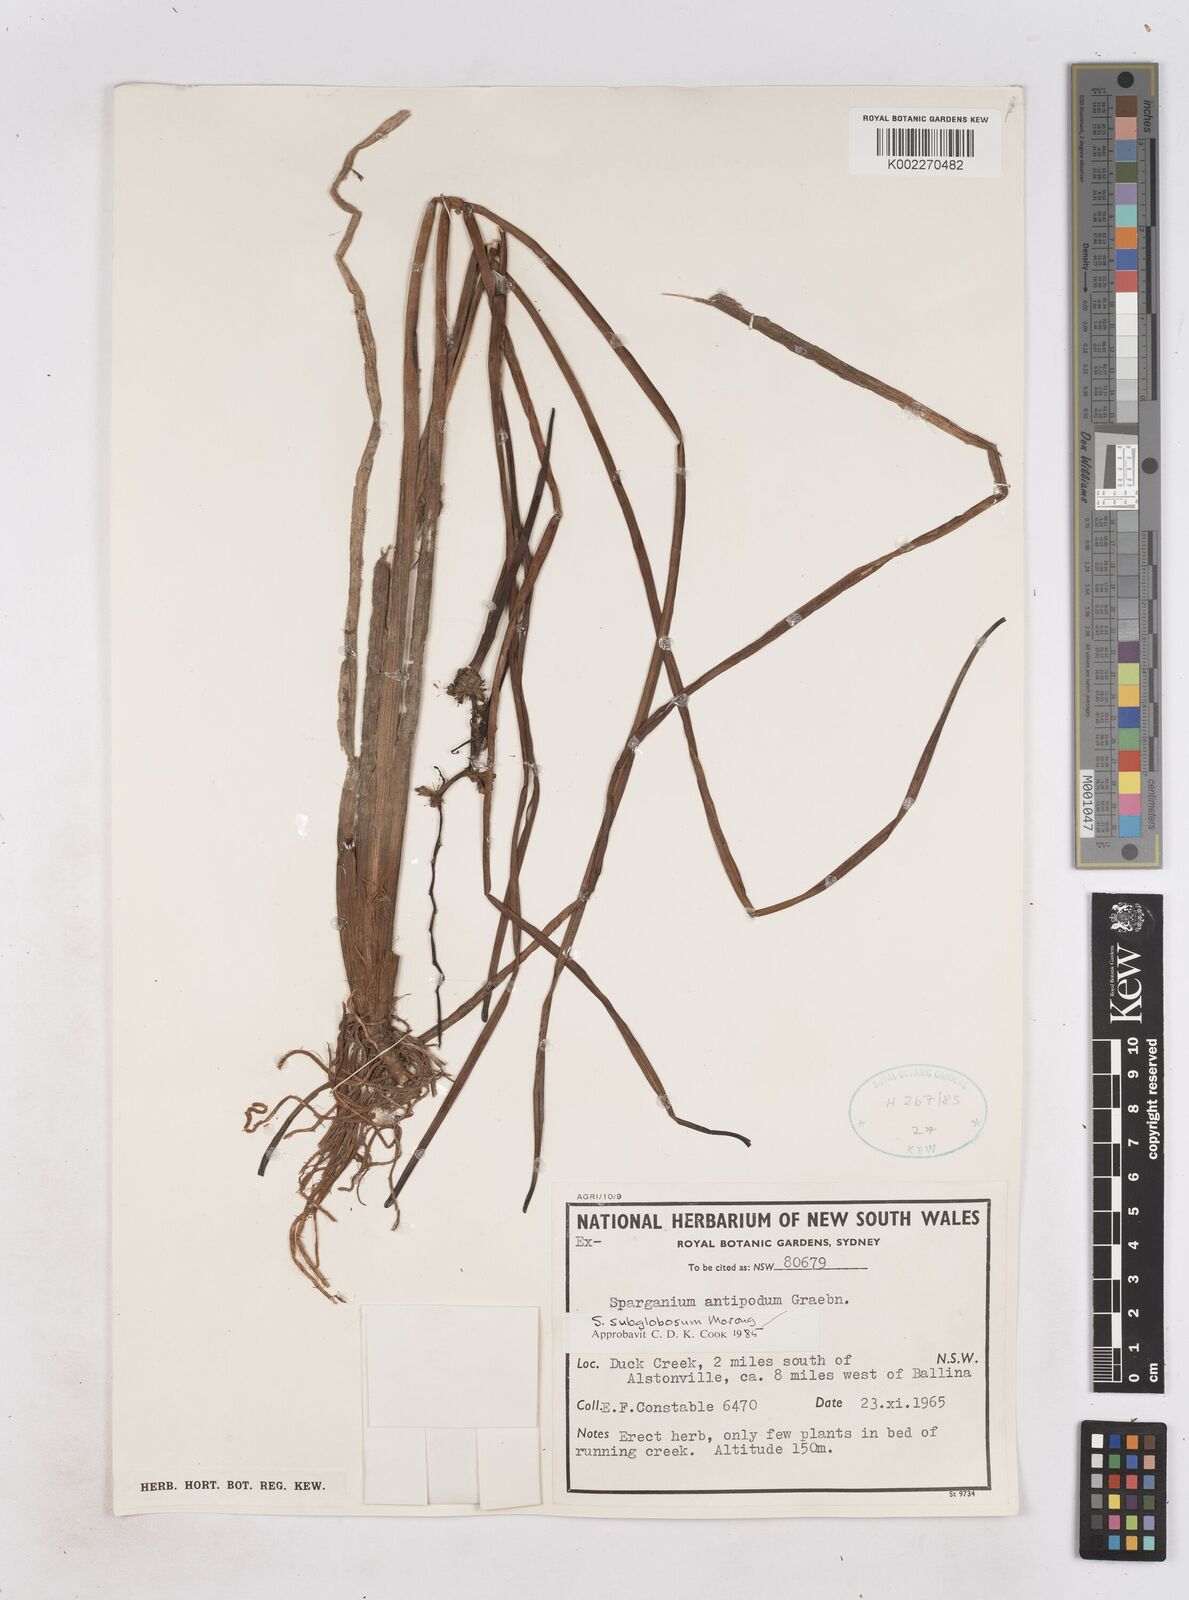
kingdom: Plantae
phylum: Tracheophyta
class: Liliopsida
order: Poales
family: Typhaceae
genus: Sparganium
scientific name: Sparganium subglobosum
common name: Burr­-reed
